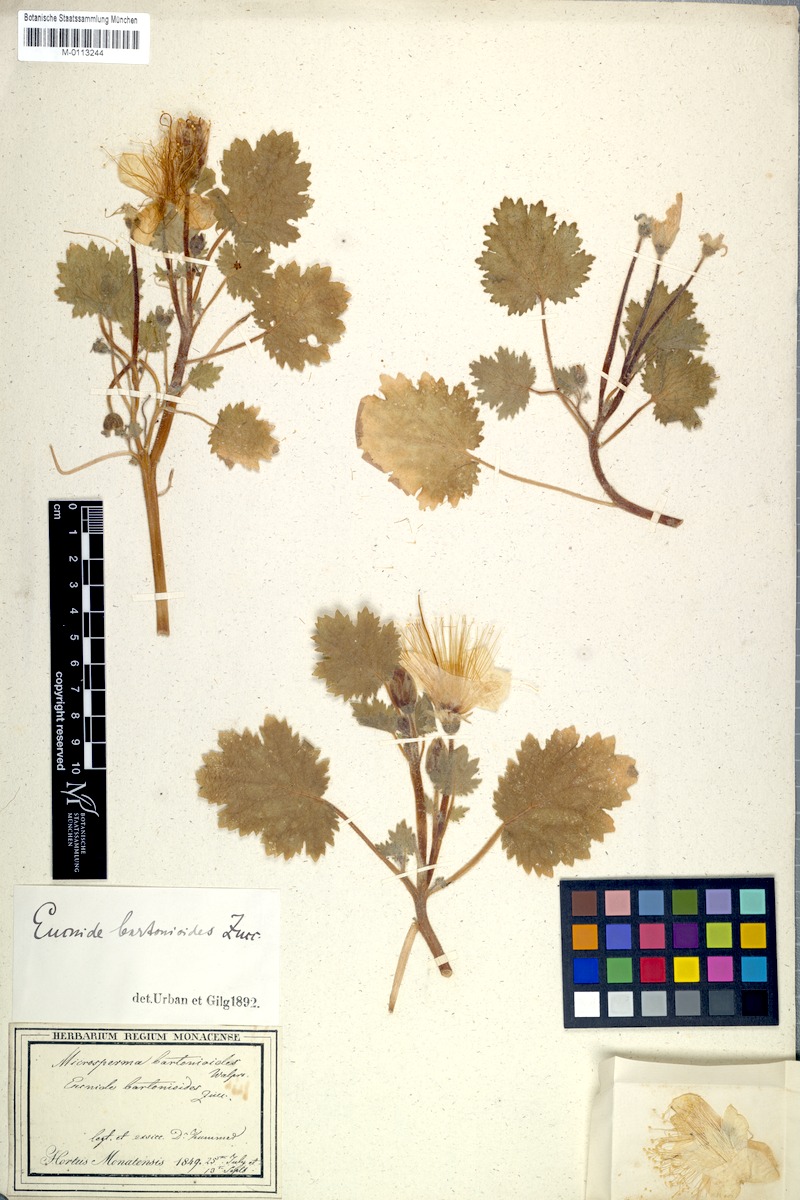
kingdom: Plantae
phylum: Tracheophyta
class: Magnoliopsida
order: Cornales
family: Loasaceae
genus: Eucnide
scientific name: Eucnide bartonioides
